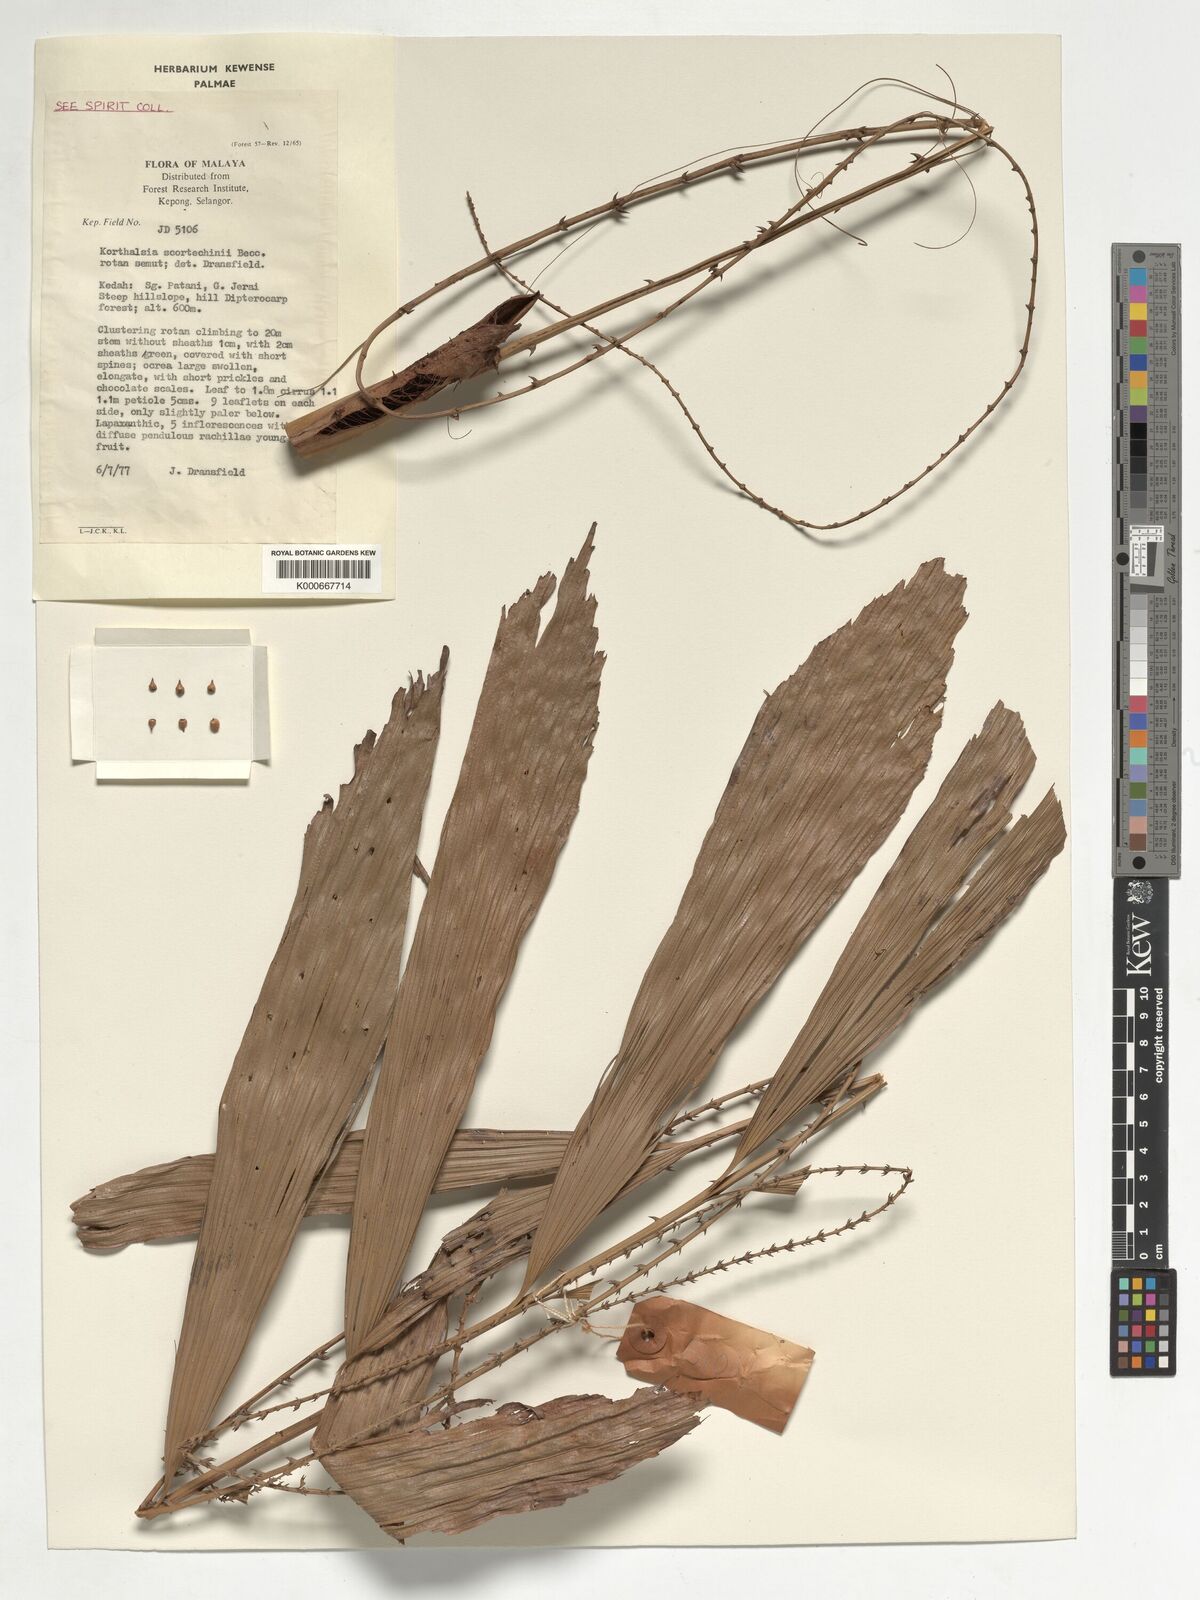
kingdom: Plantae
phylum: Tracheophyta
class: Liliopsida
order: Arecales
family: Arecaceae
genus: Korthalsia
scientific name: Korthalsia scortechinii
